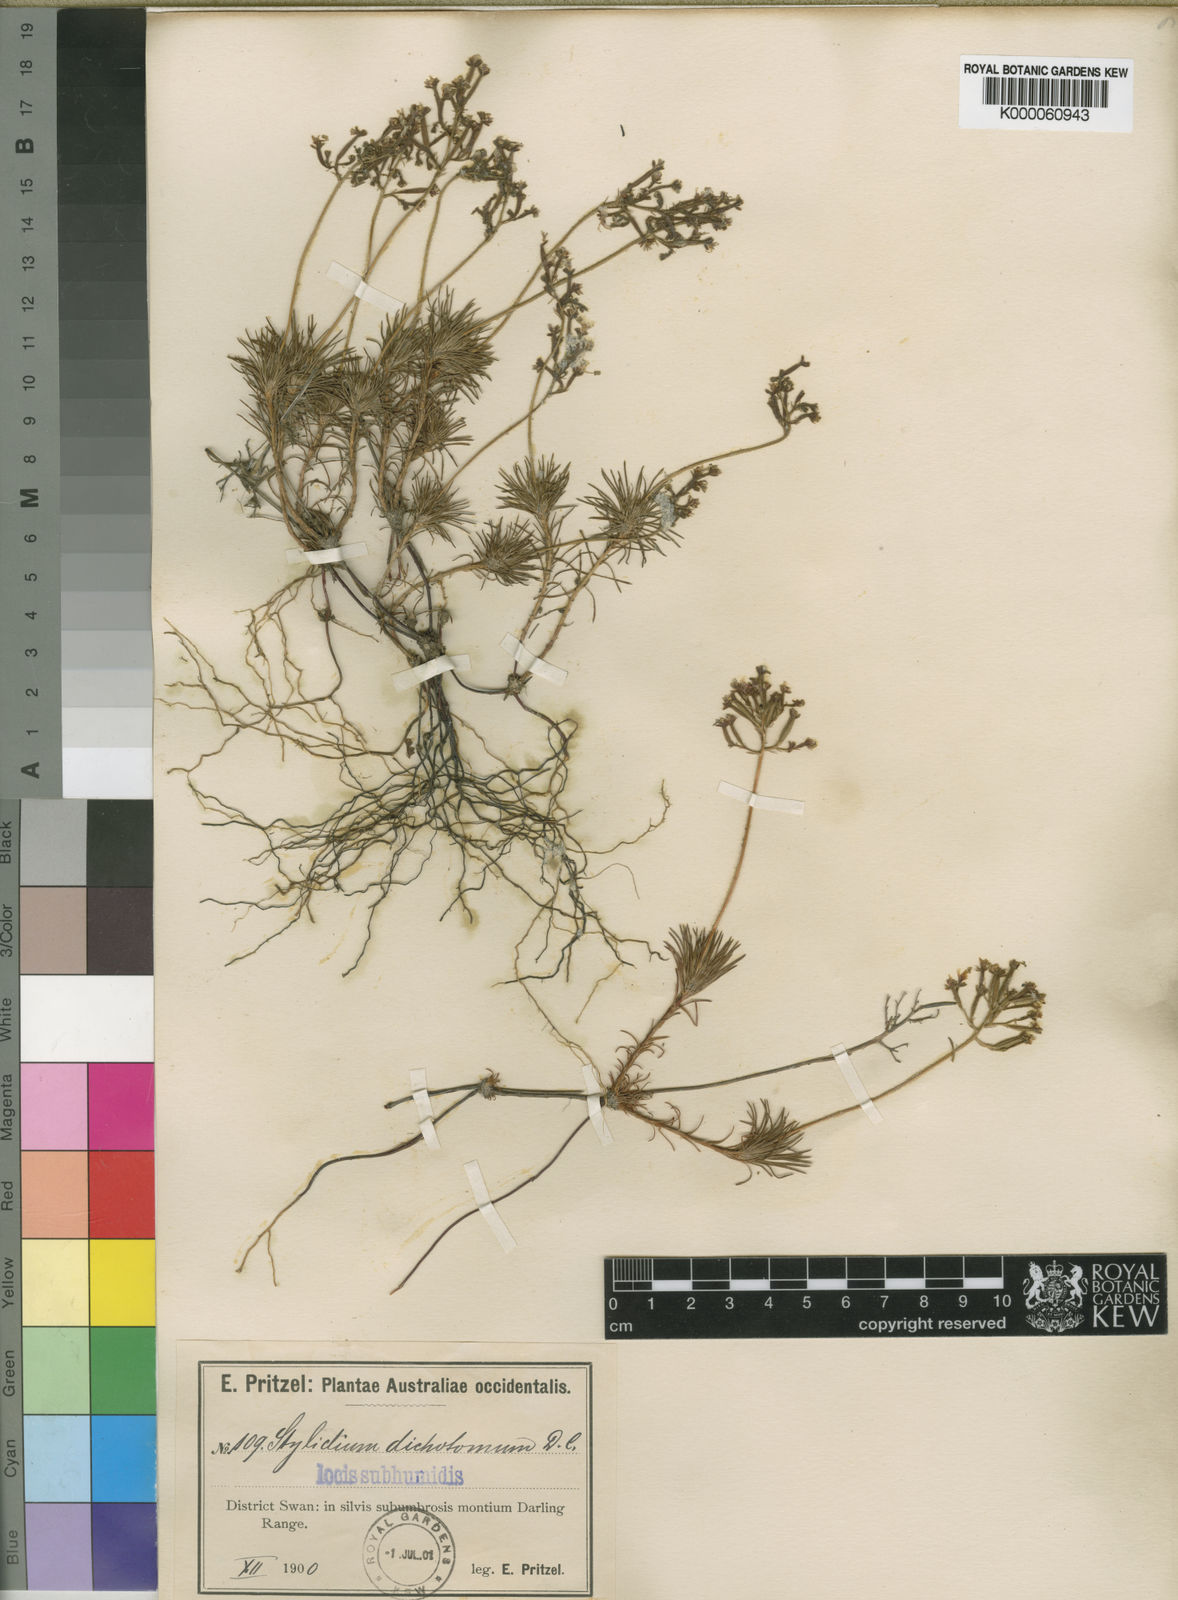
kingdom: Plantae
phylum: Tracheophyta
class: Magnoliopsida
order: Asterales
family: Stylidiaceae
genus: Stylidium
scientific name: Stylidium dichotomum
